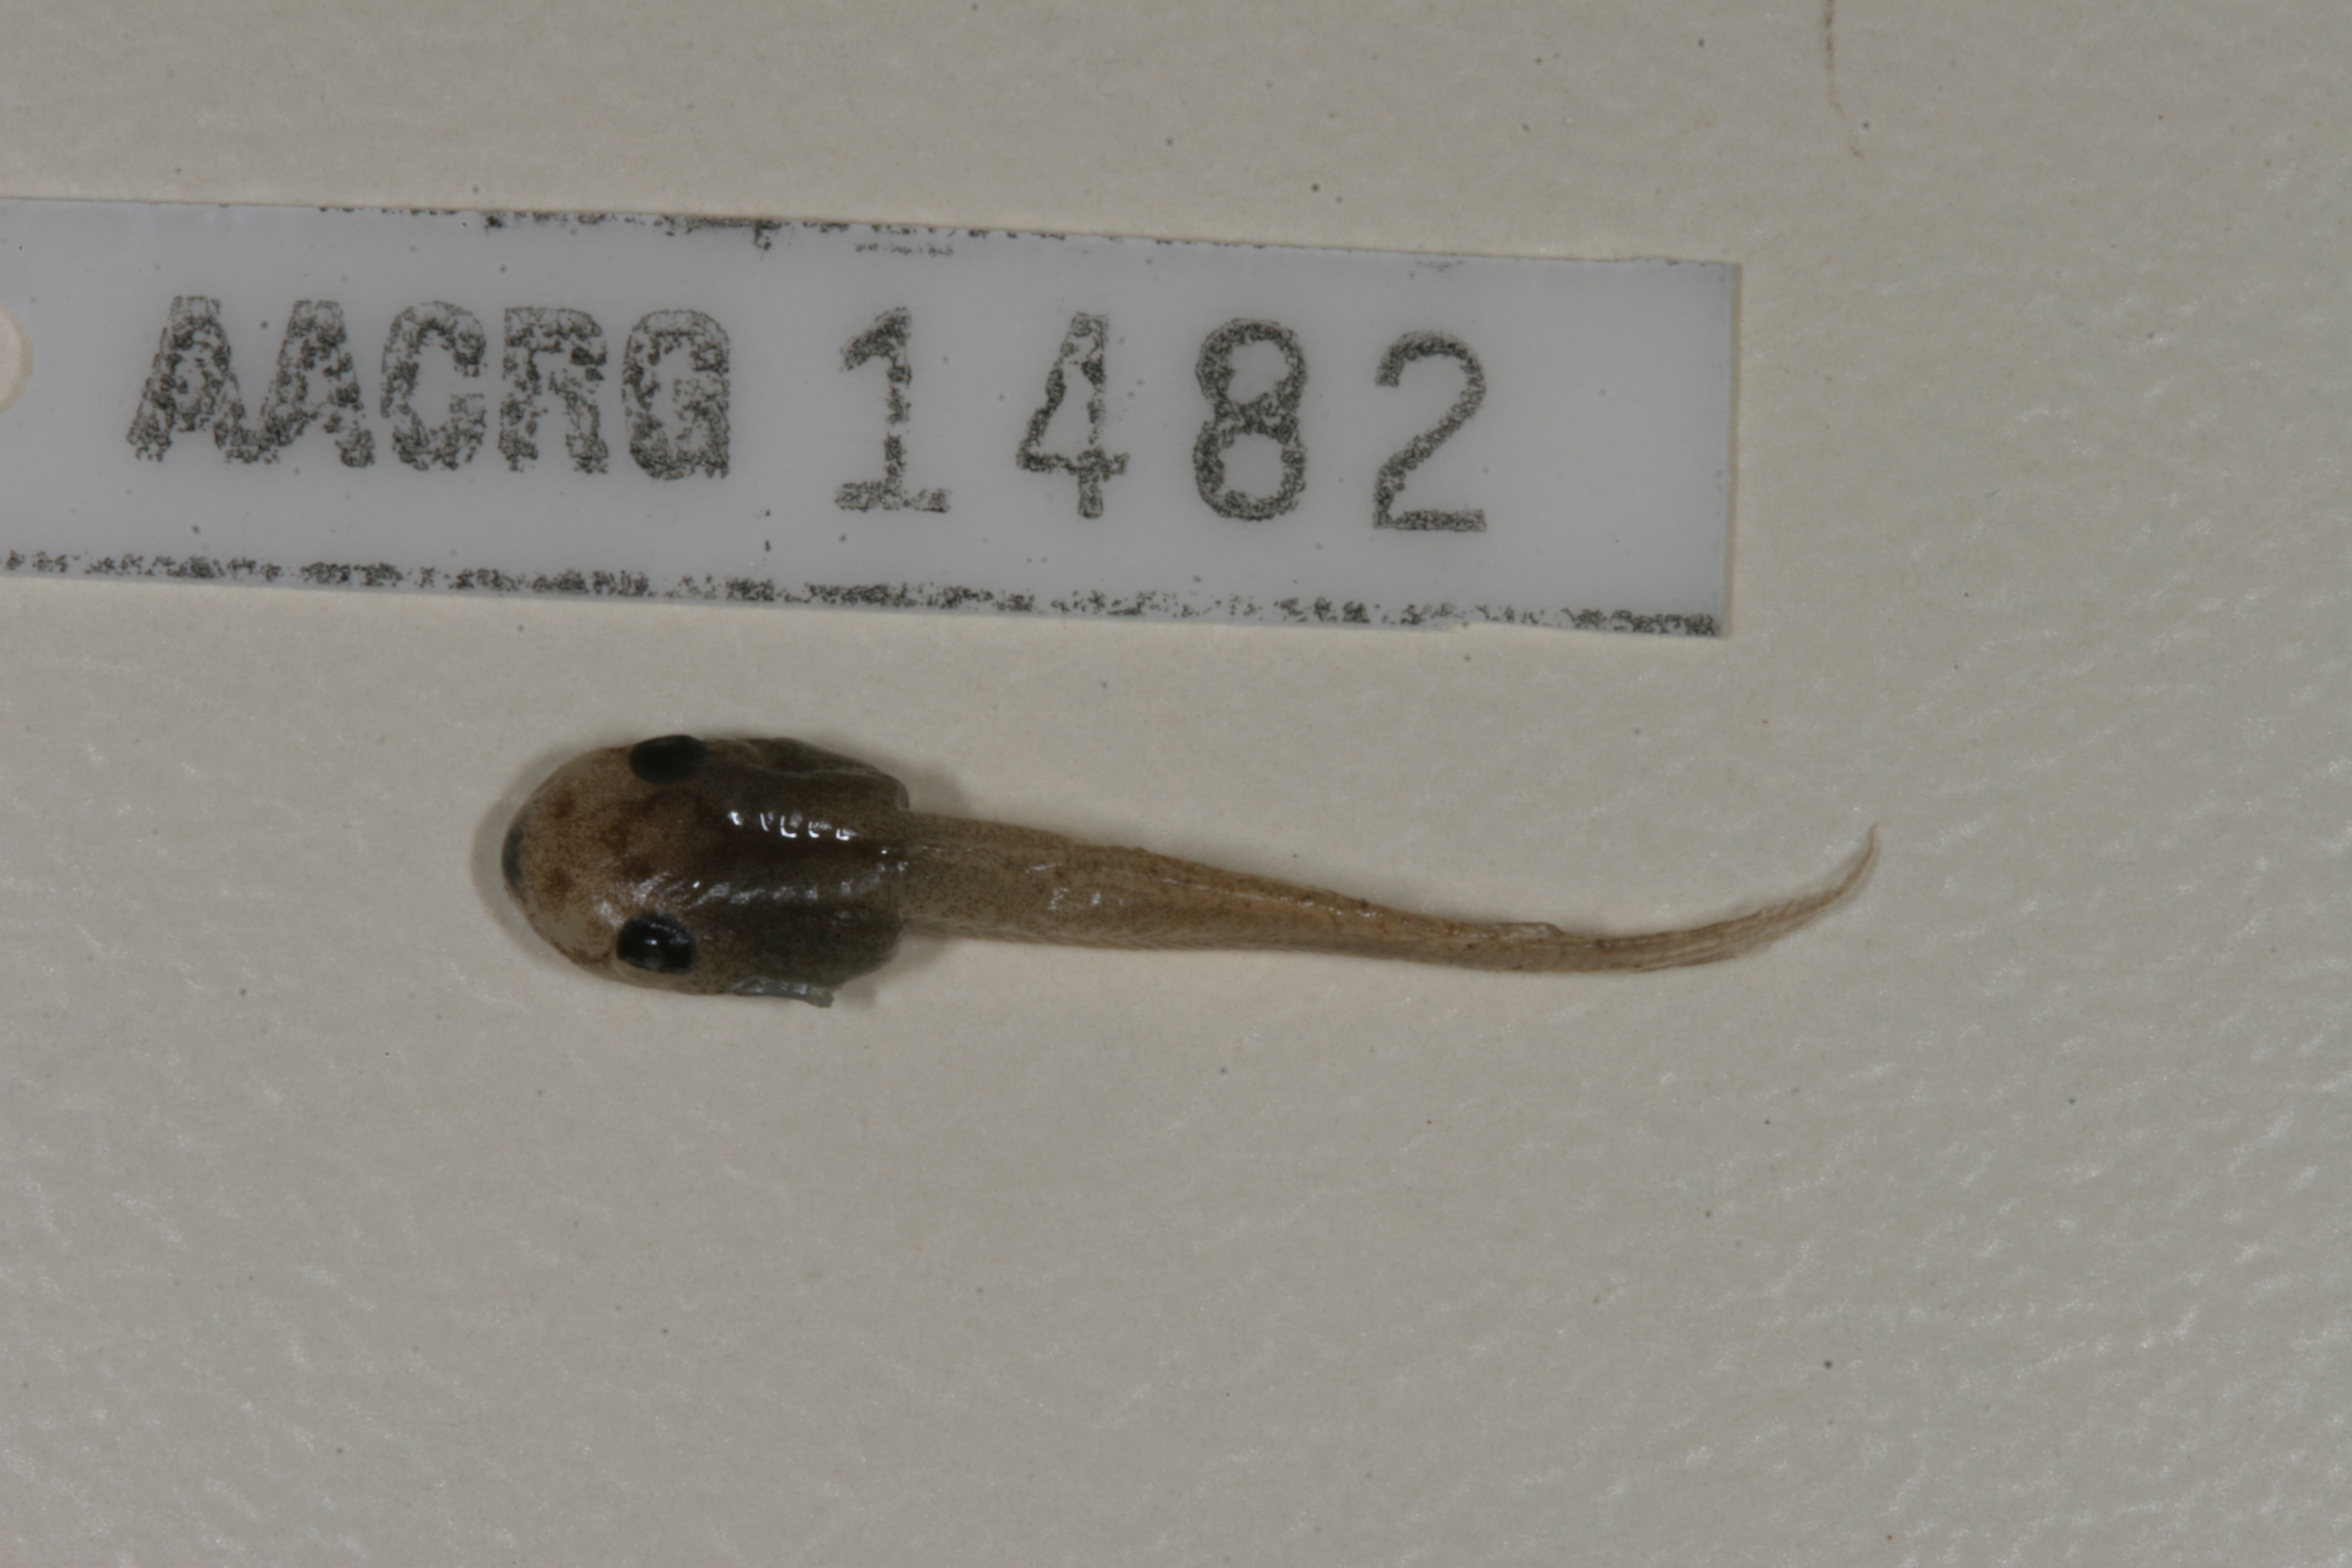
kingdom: Animalia
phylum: Chordata
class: Amphibia
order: Anura
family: Hyperoliidae
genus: Afrixalus
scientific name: Afrixalus aureus
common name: Golden banana frog
